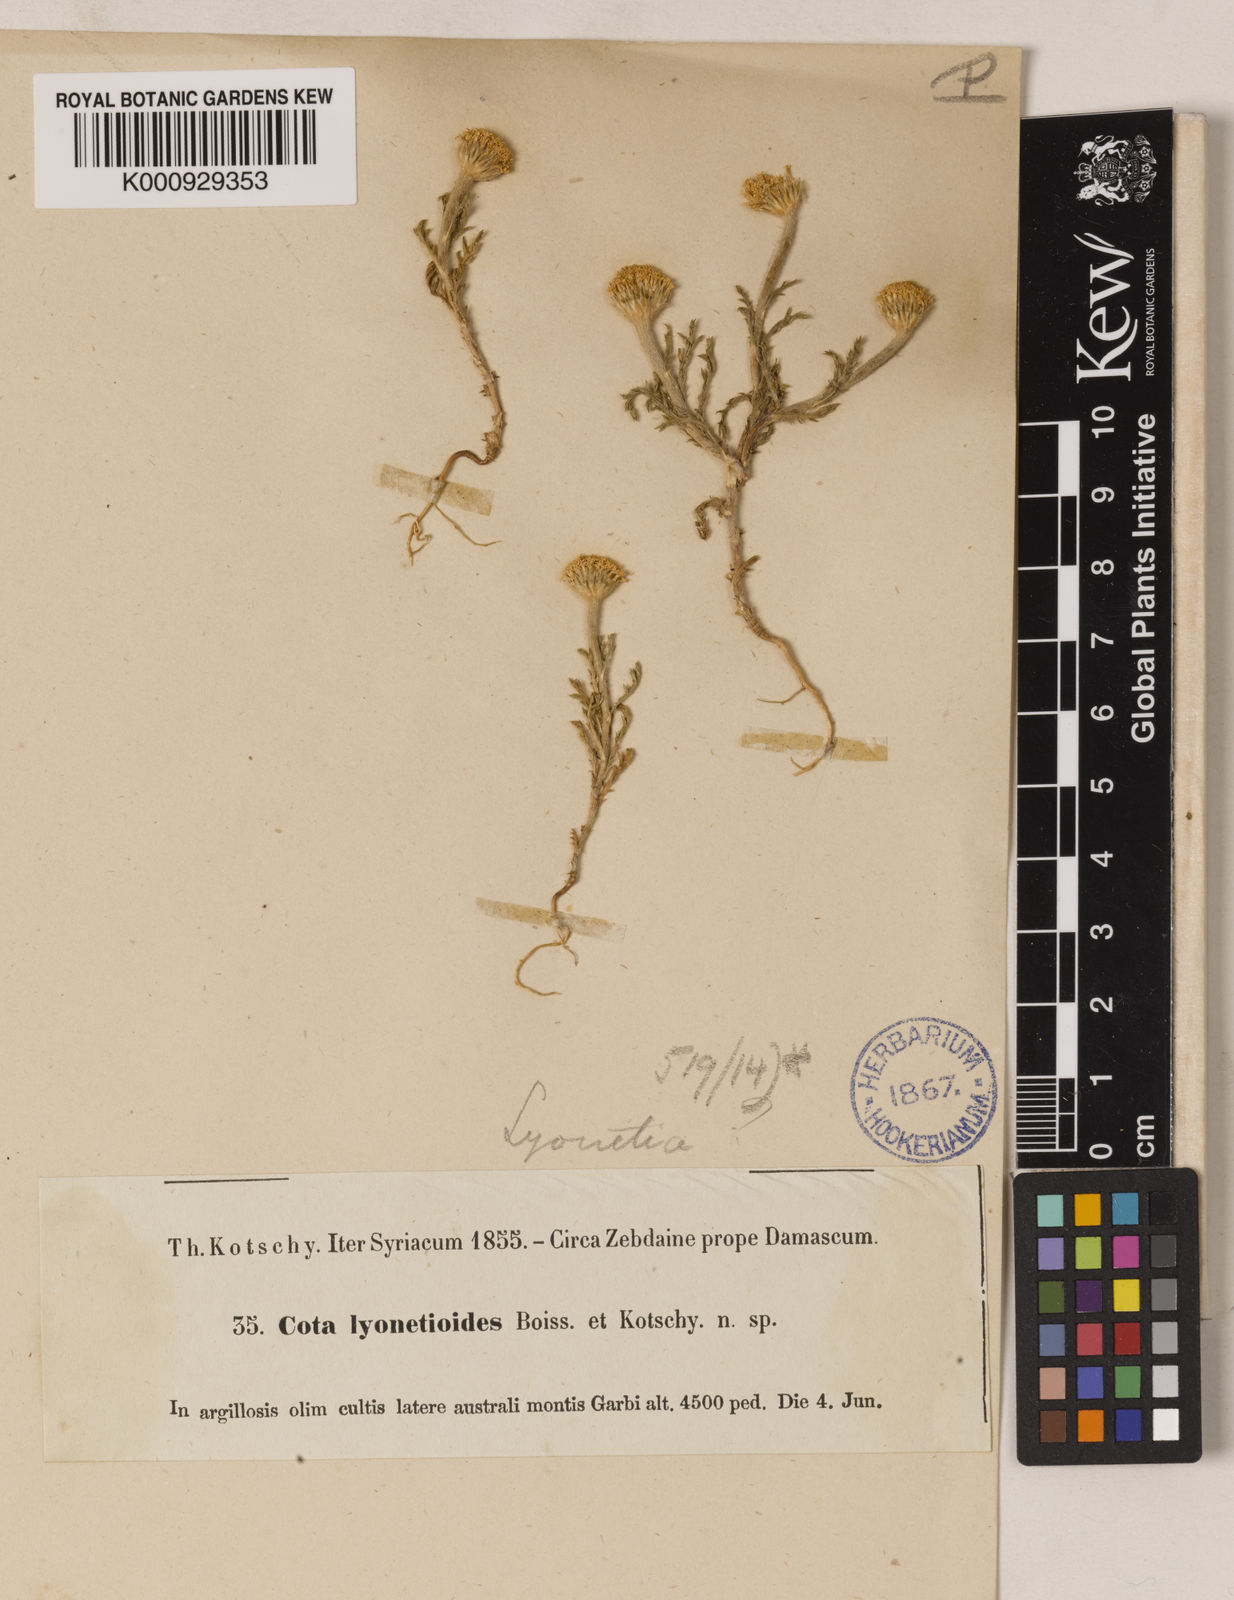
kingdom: Plantae
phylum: Tracheophyta
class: Magnoliopsida
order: Asterales
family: Asteraceae
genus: Cota
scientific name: Cota lyonnetioides
